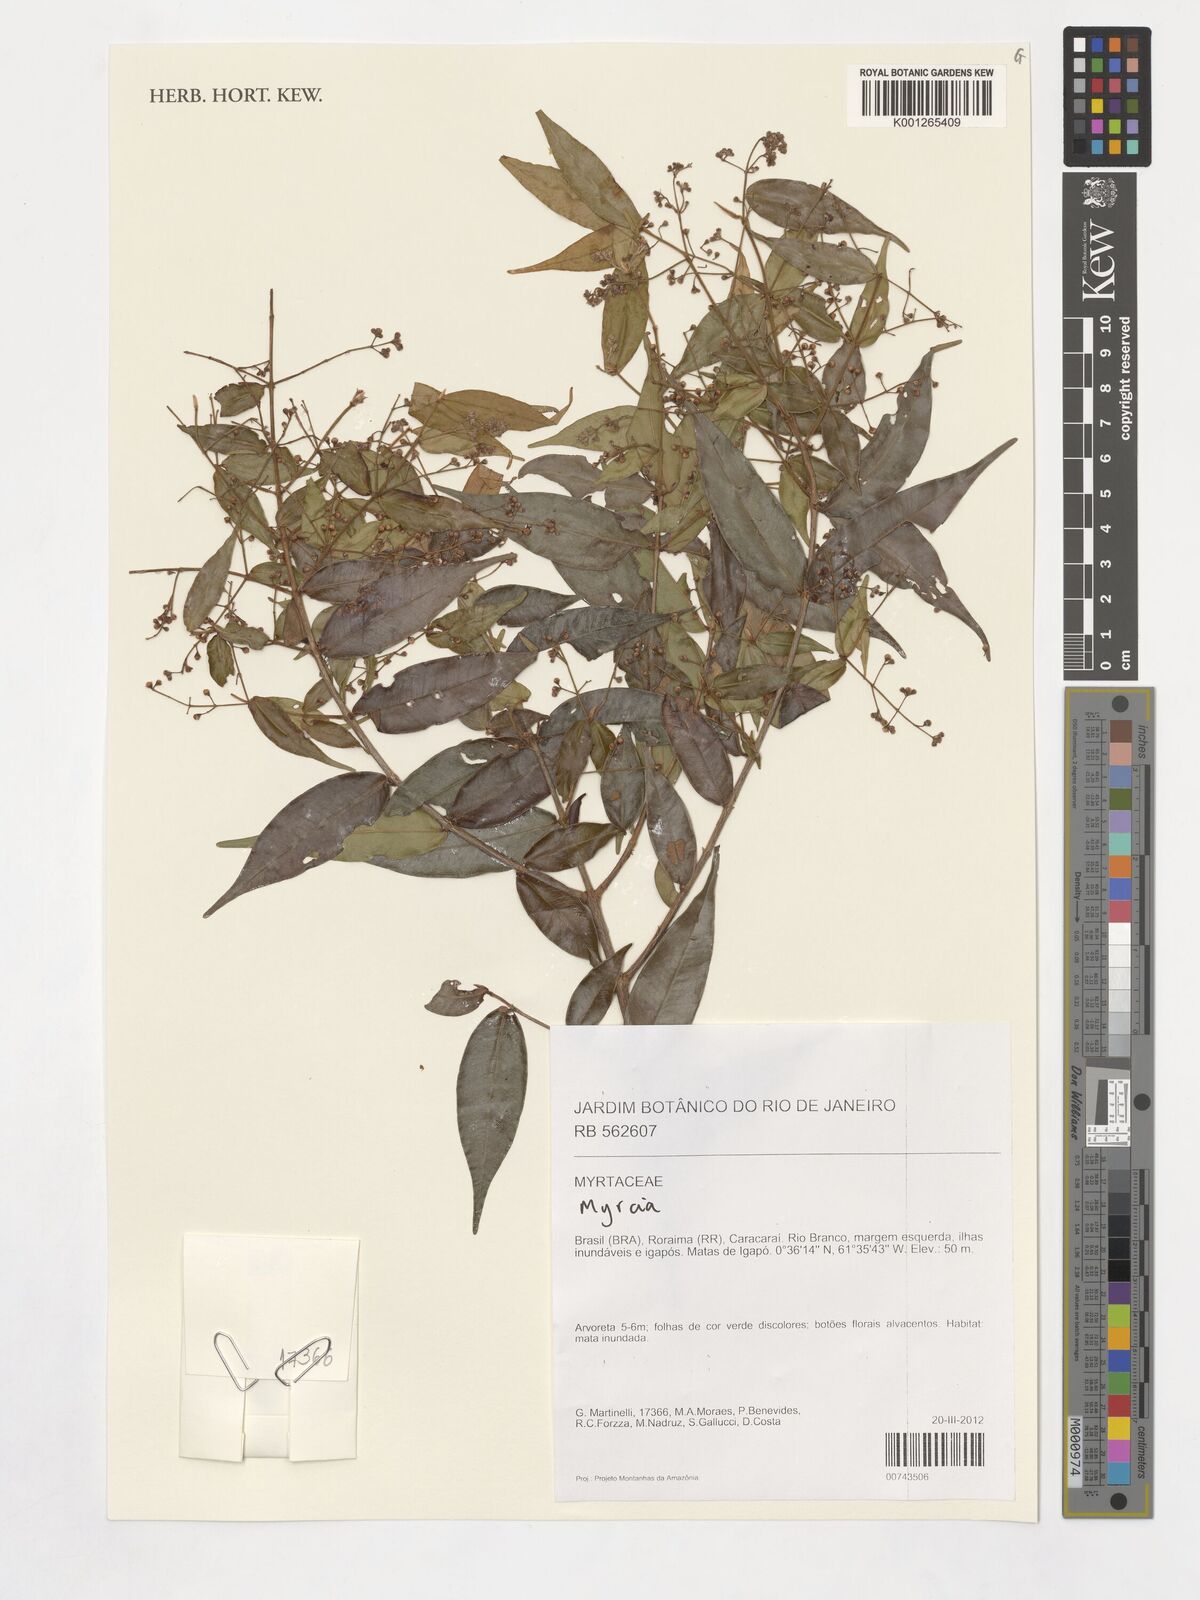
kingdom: Plantae
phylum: Tracheophyta
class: Magnoliopsida
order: Myrtales
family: Myrtaceae
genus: Myrcia
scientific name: Myrcia splendens
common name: Surinam cherry
